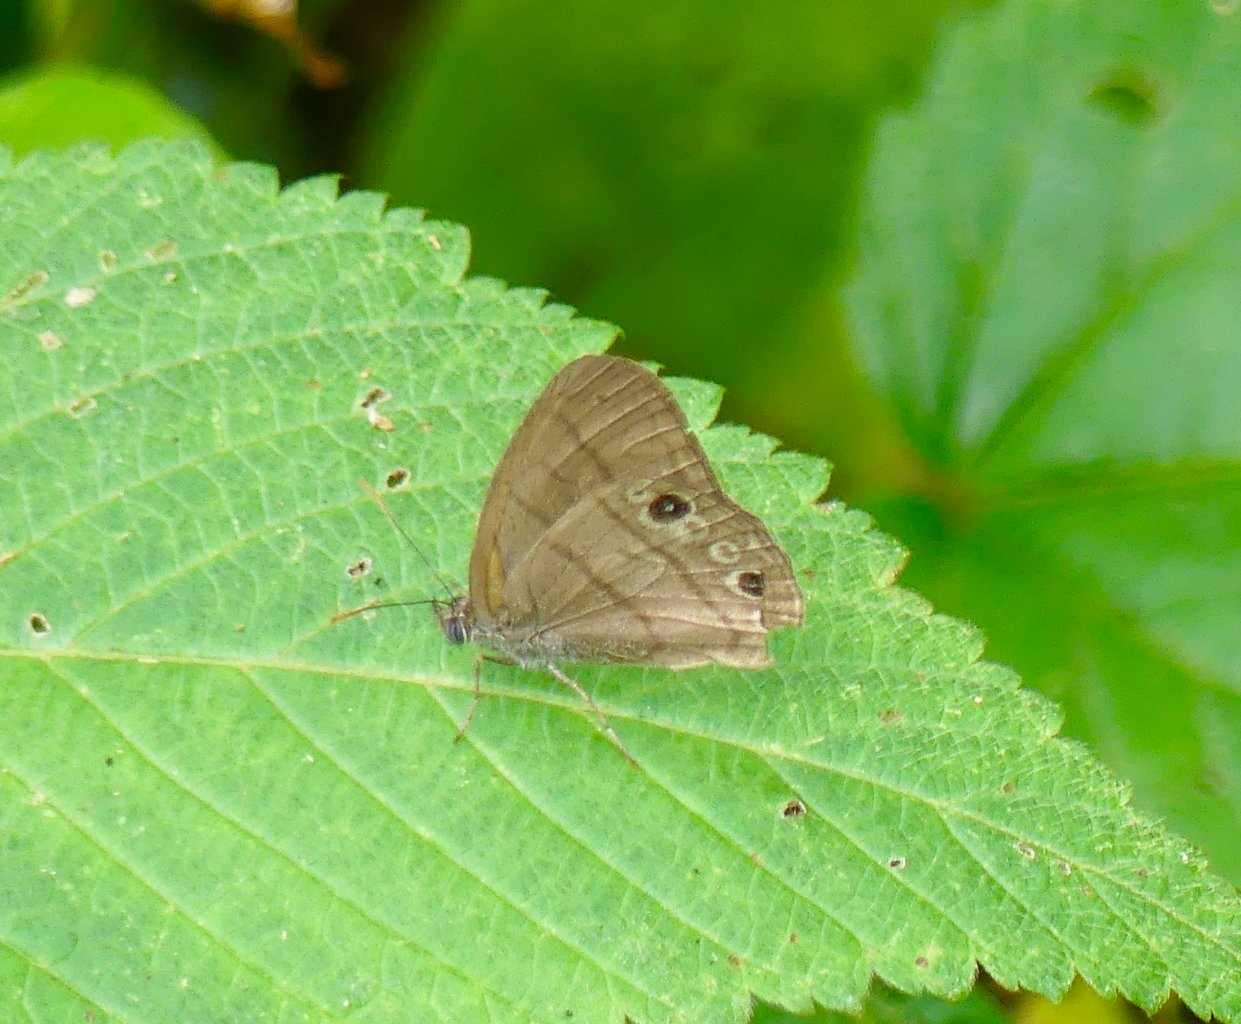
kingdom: Animalia
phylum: Arthropoda
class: Insecta
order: Lepidoptera
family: Nymphalidae
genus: Hermeuptychia
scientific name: Hermeuptychia hermes
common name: Hermes Satyr
